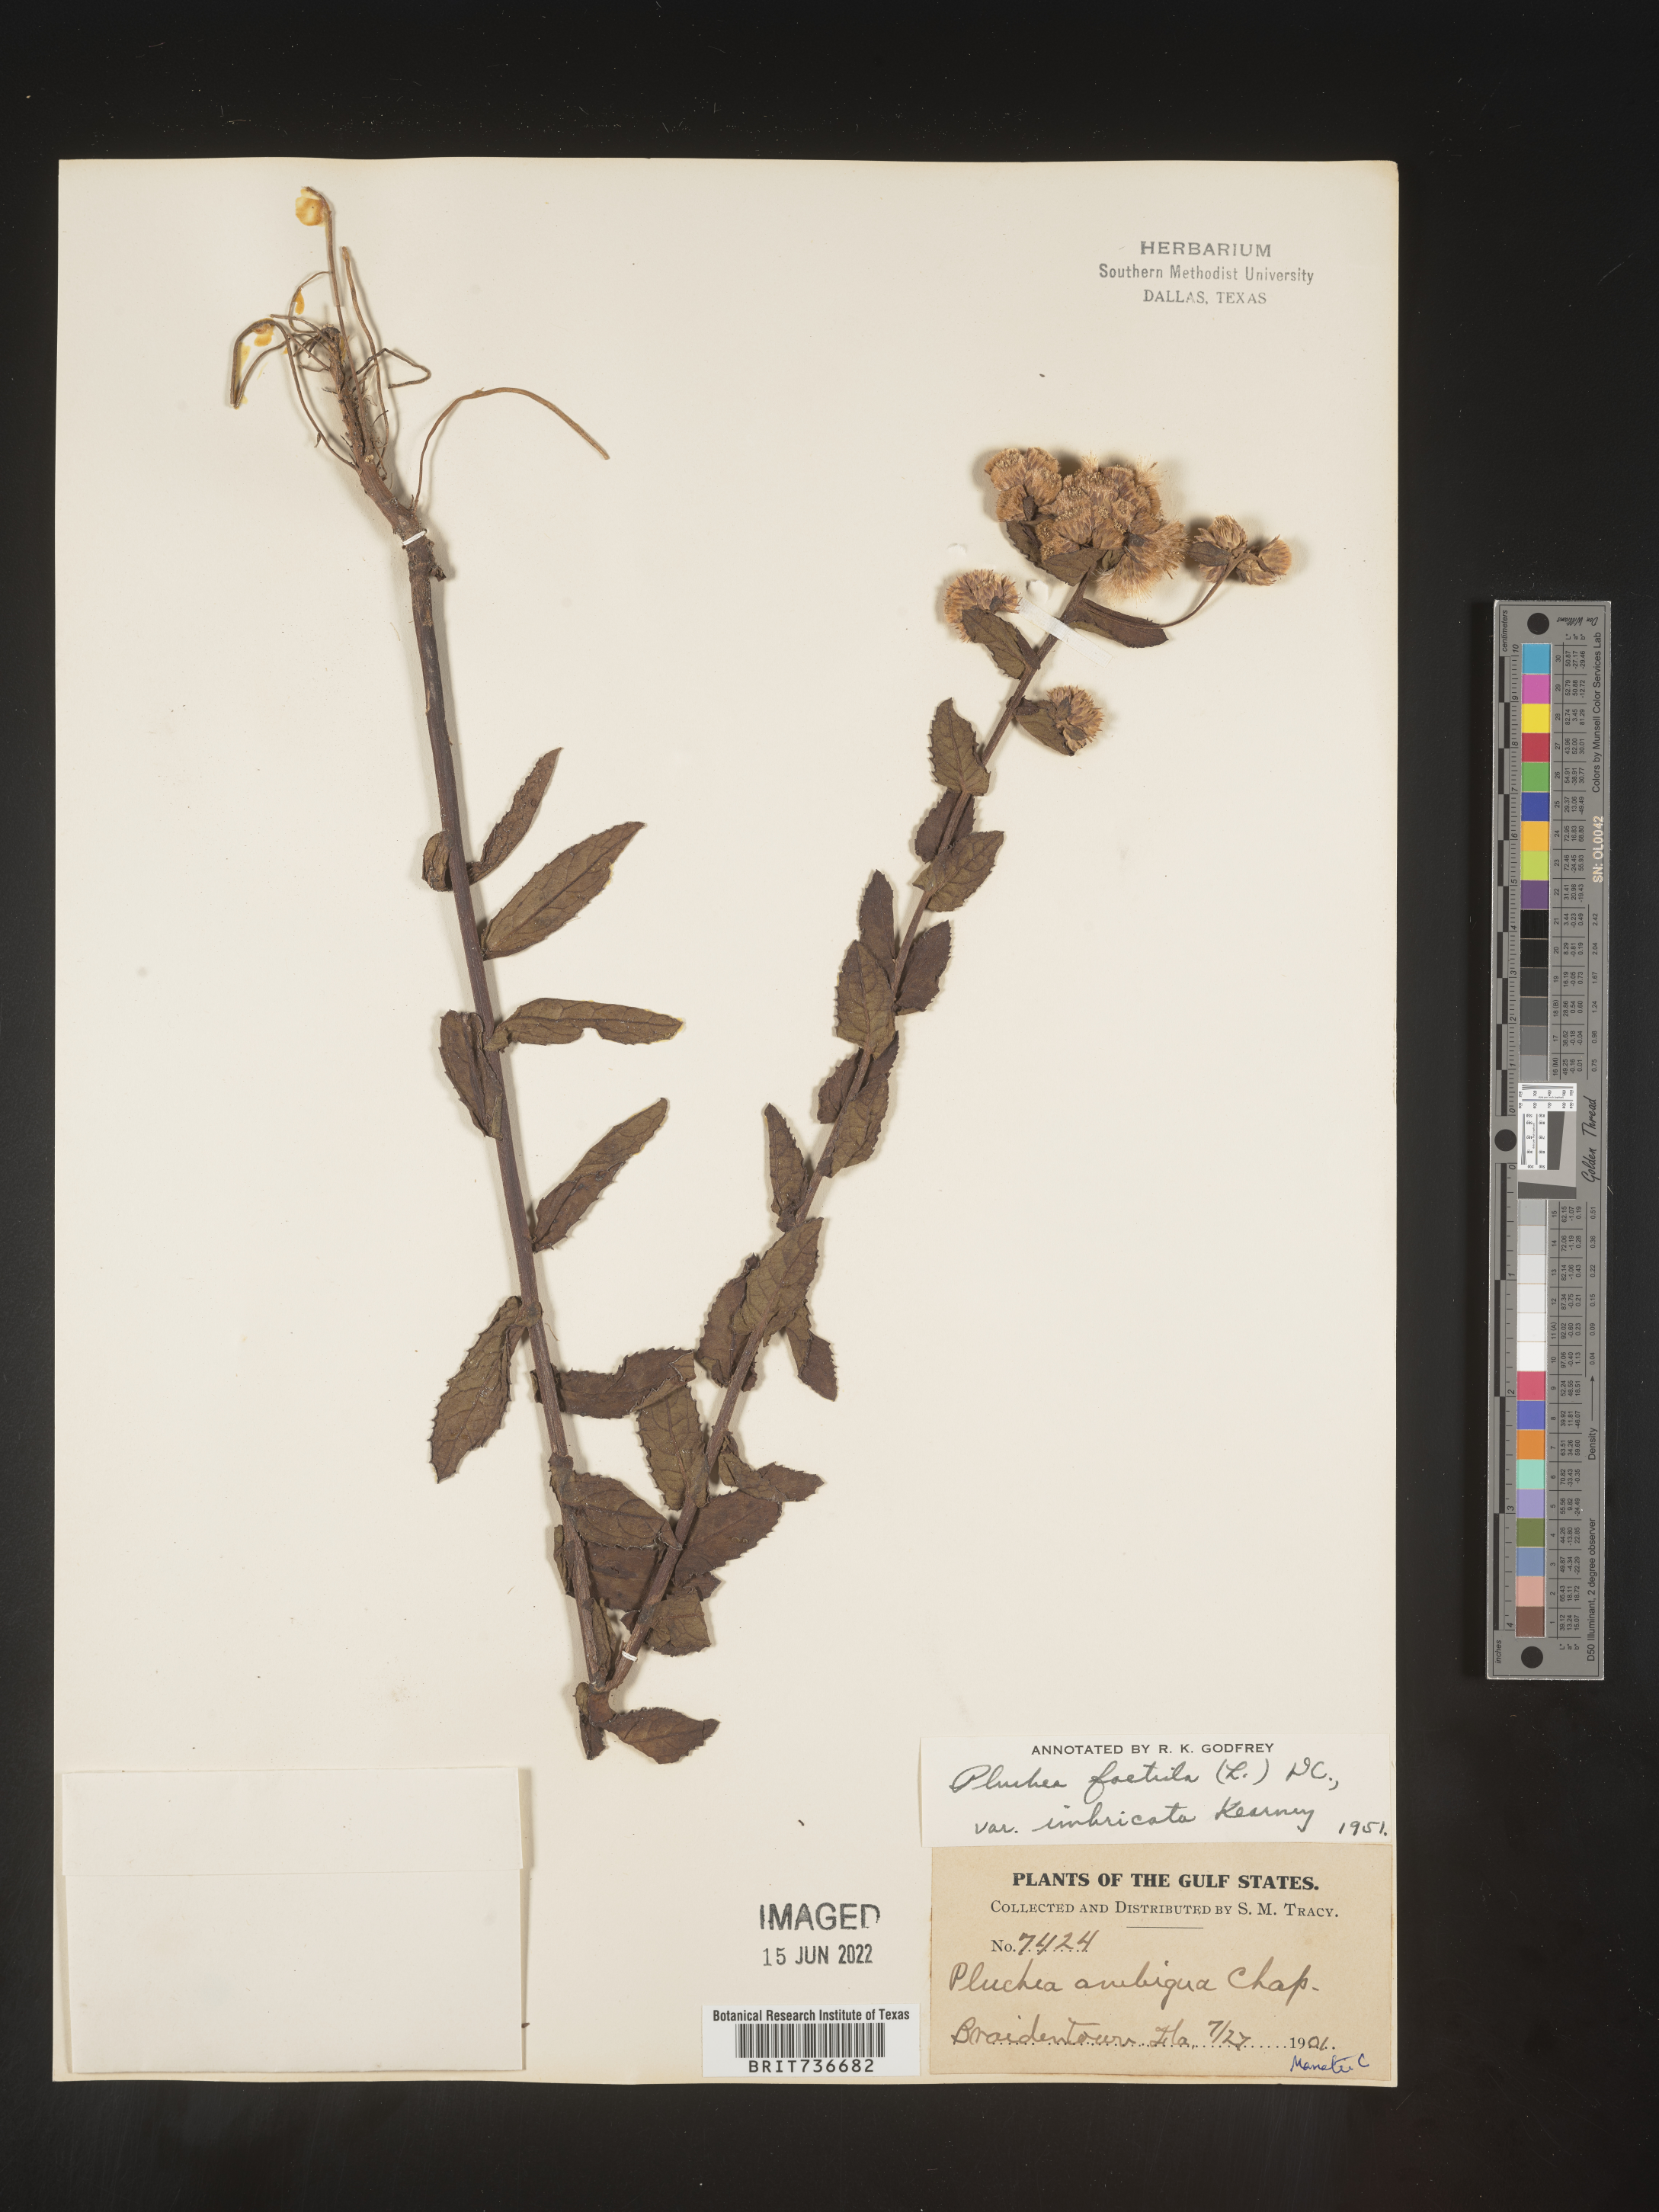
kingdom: Plantae
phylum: Tracheophyta
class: Magnoliopsida
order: Asterales
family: Asteraceae
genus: Pluchea
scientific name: Pluchea foetida
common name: Stinking camphorweed
